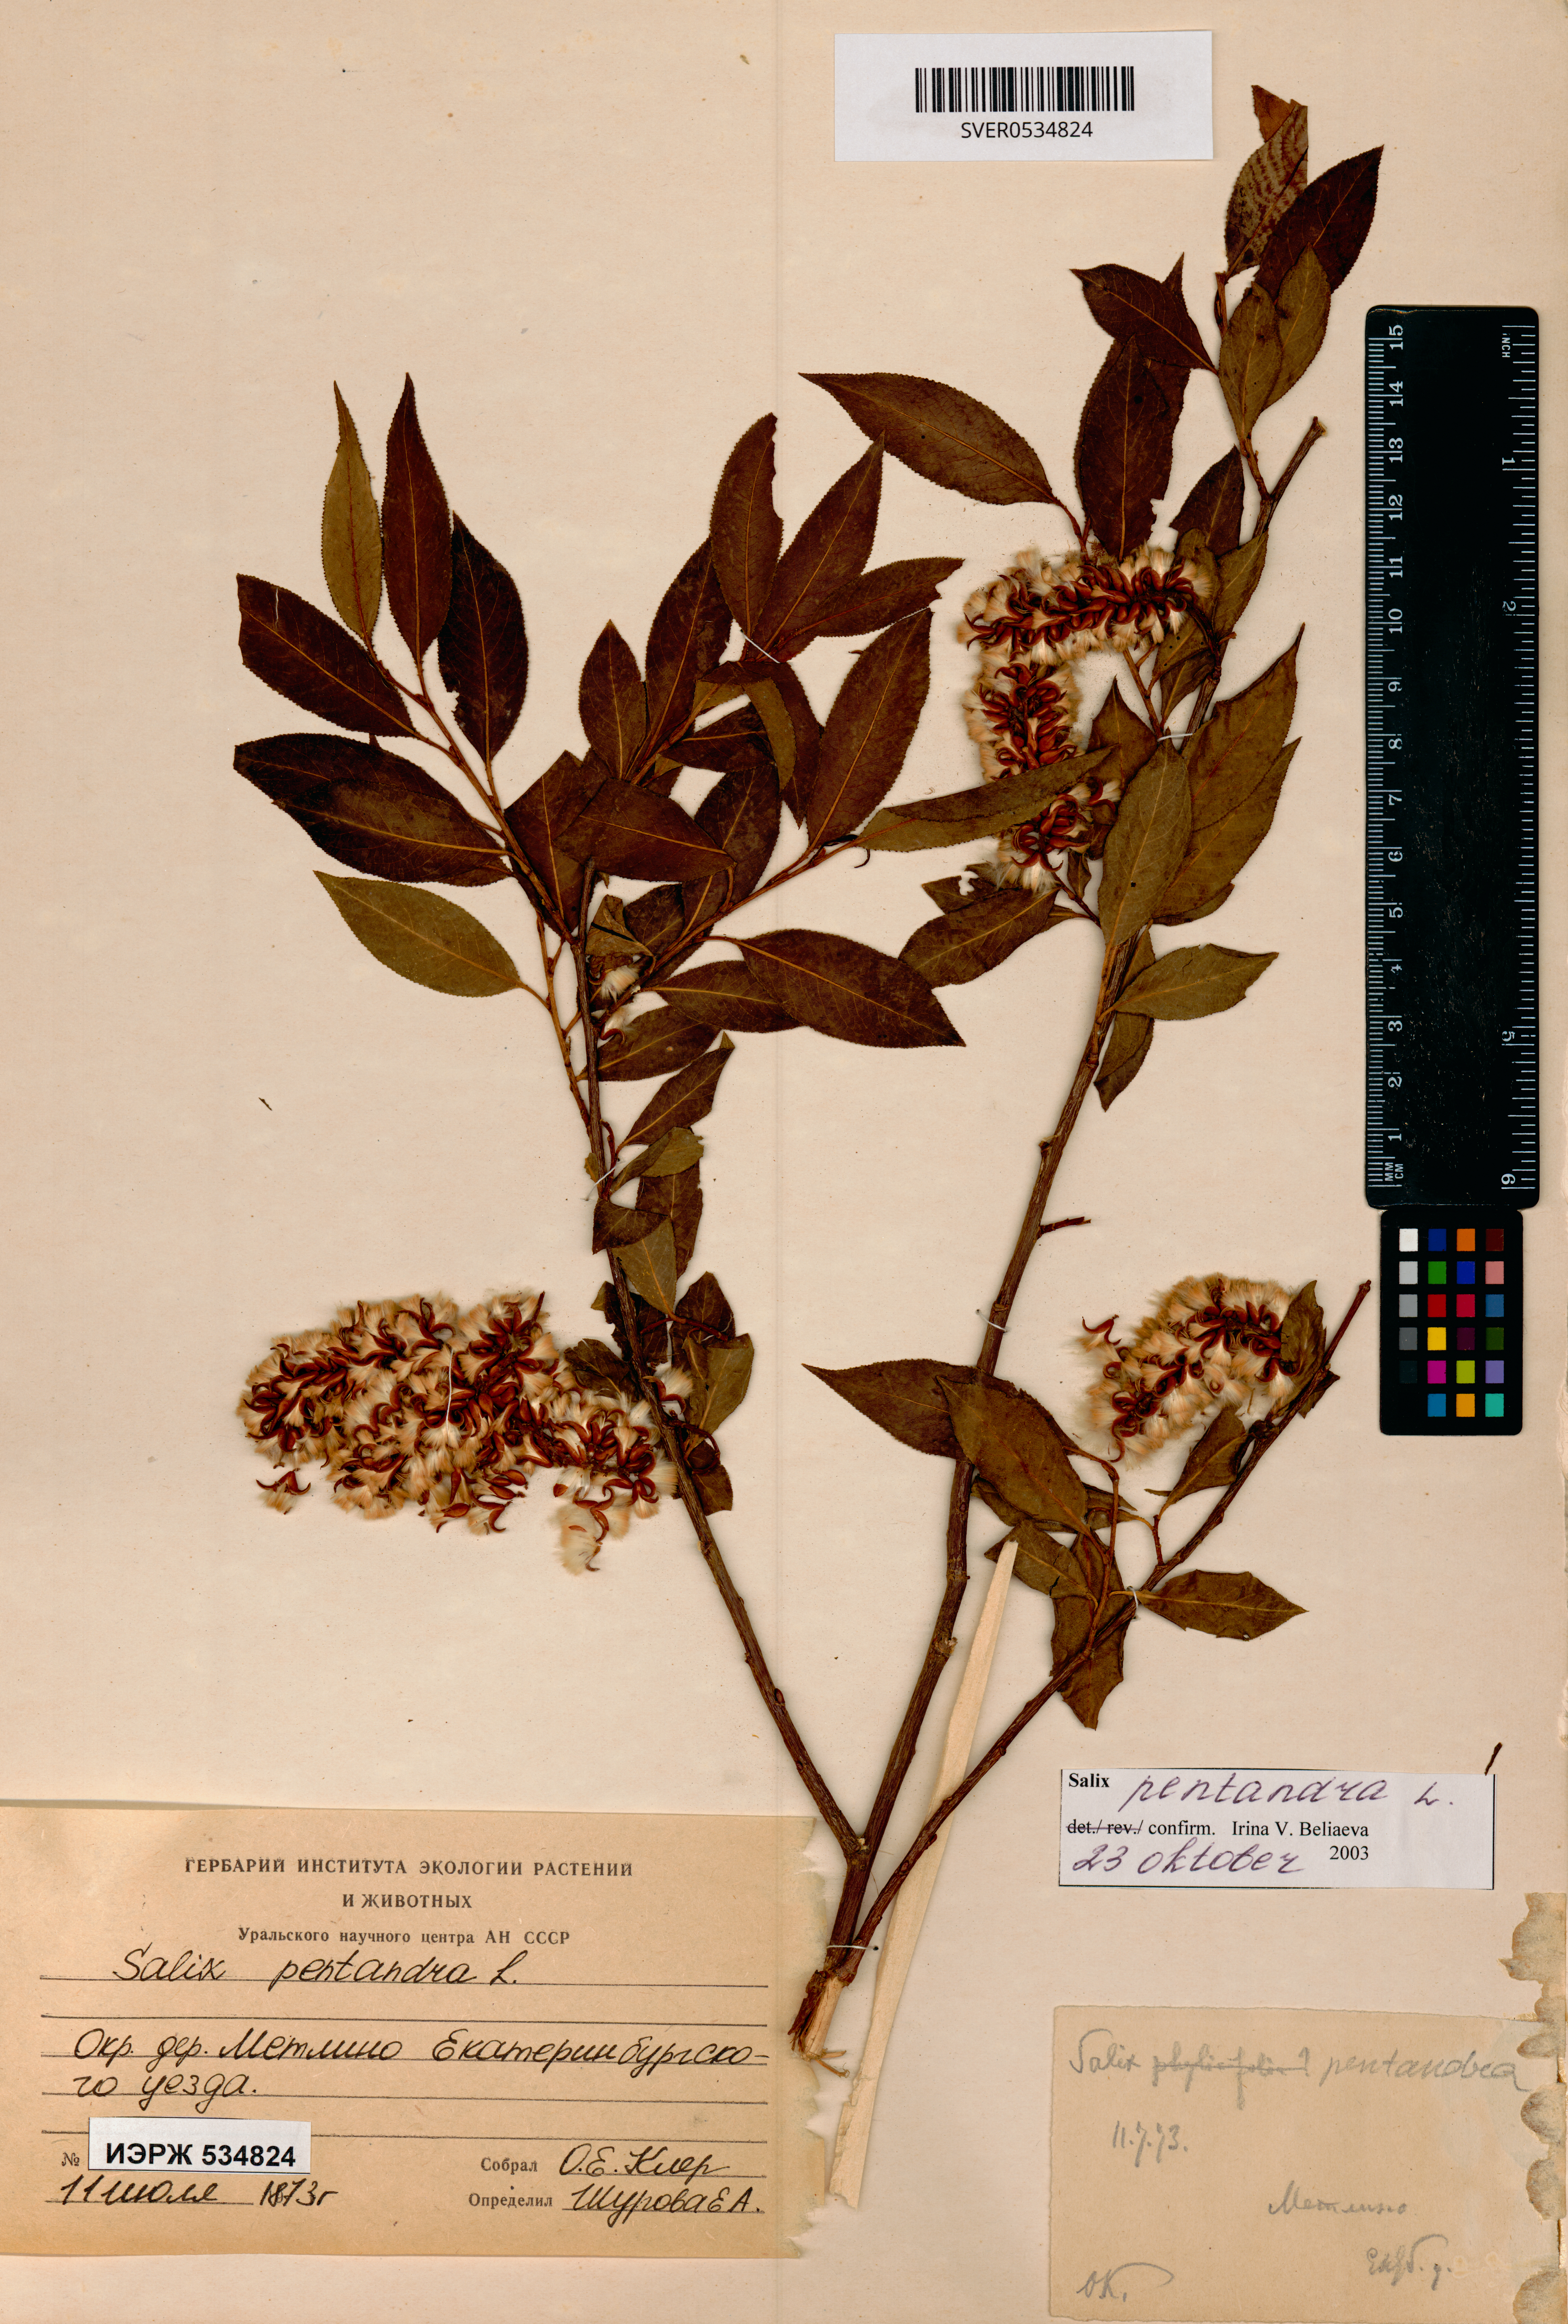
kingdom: Plantae
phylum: Tracheophyta
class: Magnoliopsida
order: Malpighiales
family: Salicaceae
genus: Salix
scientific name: Salix pentandra
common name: Bay willow
